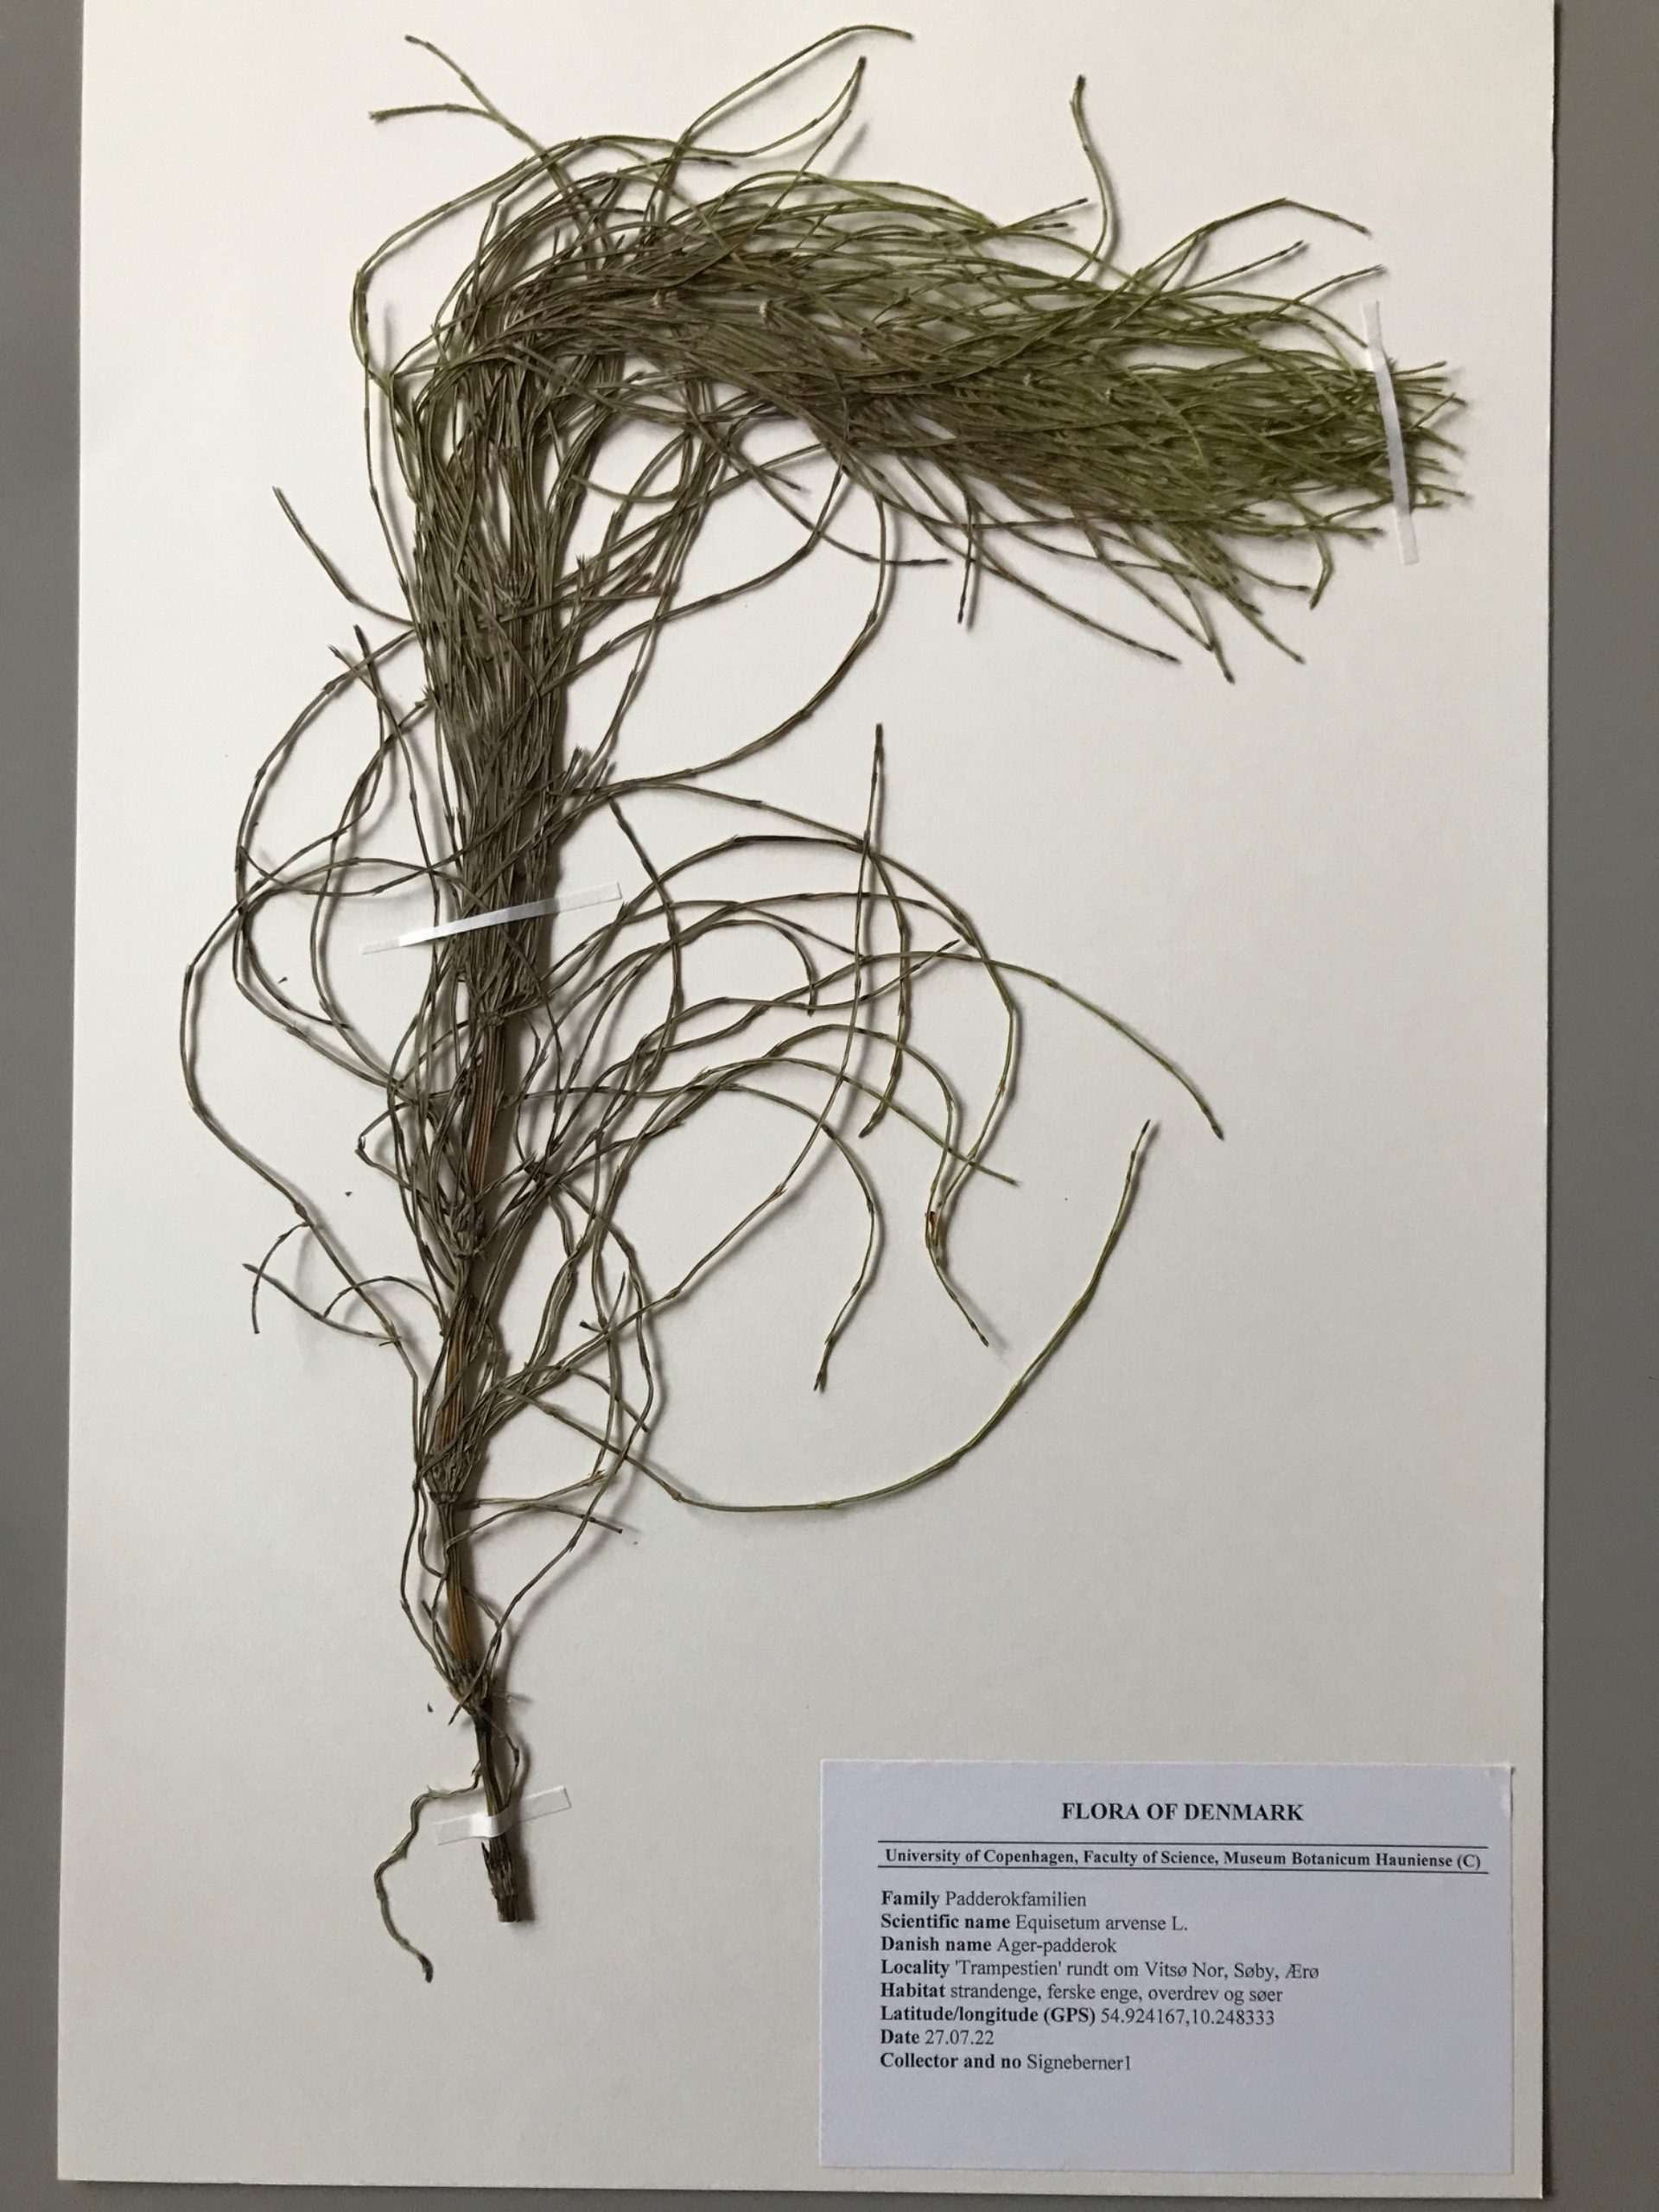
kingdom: Plantae
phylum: Tracheophyta
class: Polypodiopsida
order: Equisetales
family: Equisetaceae
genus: Equisetum
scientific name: Equisetum arvense
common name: Ager-padderok
